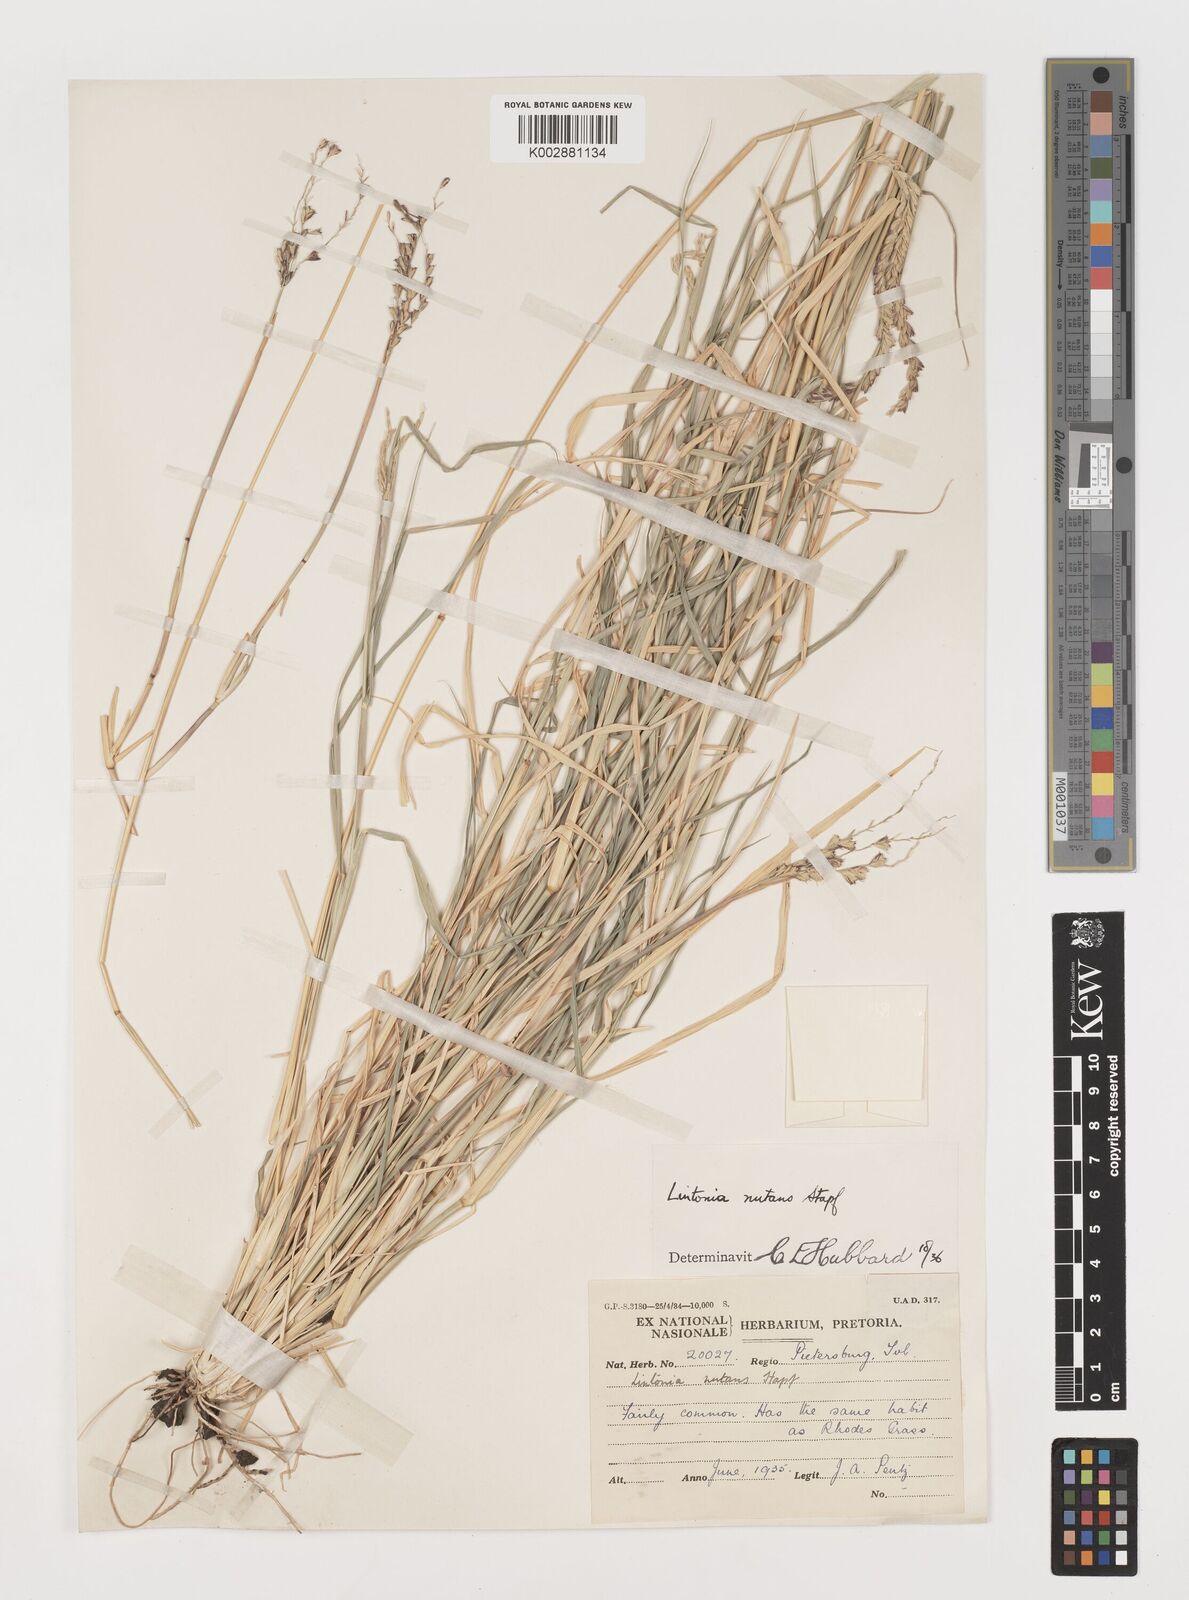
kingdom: Plantae
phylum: Tracheophyta
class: Liliopsida
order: Poales
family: Poaceae
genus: Chloris
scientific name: Chloris nutans
